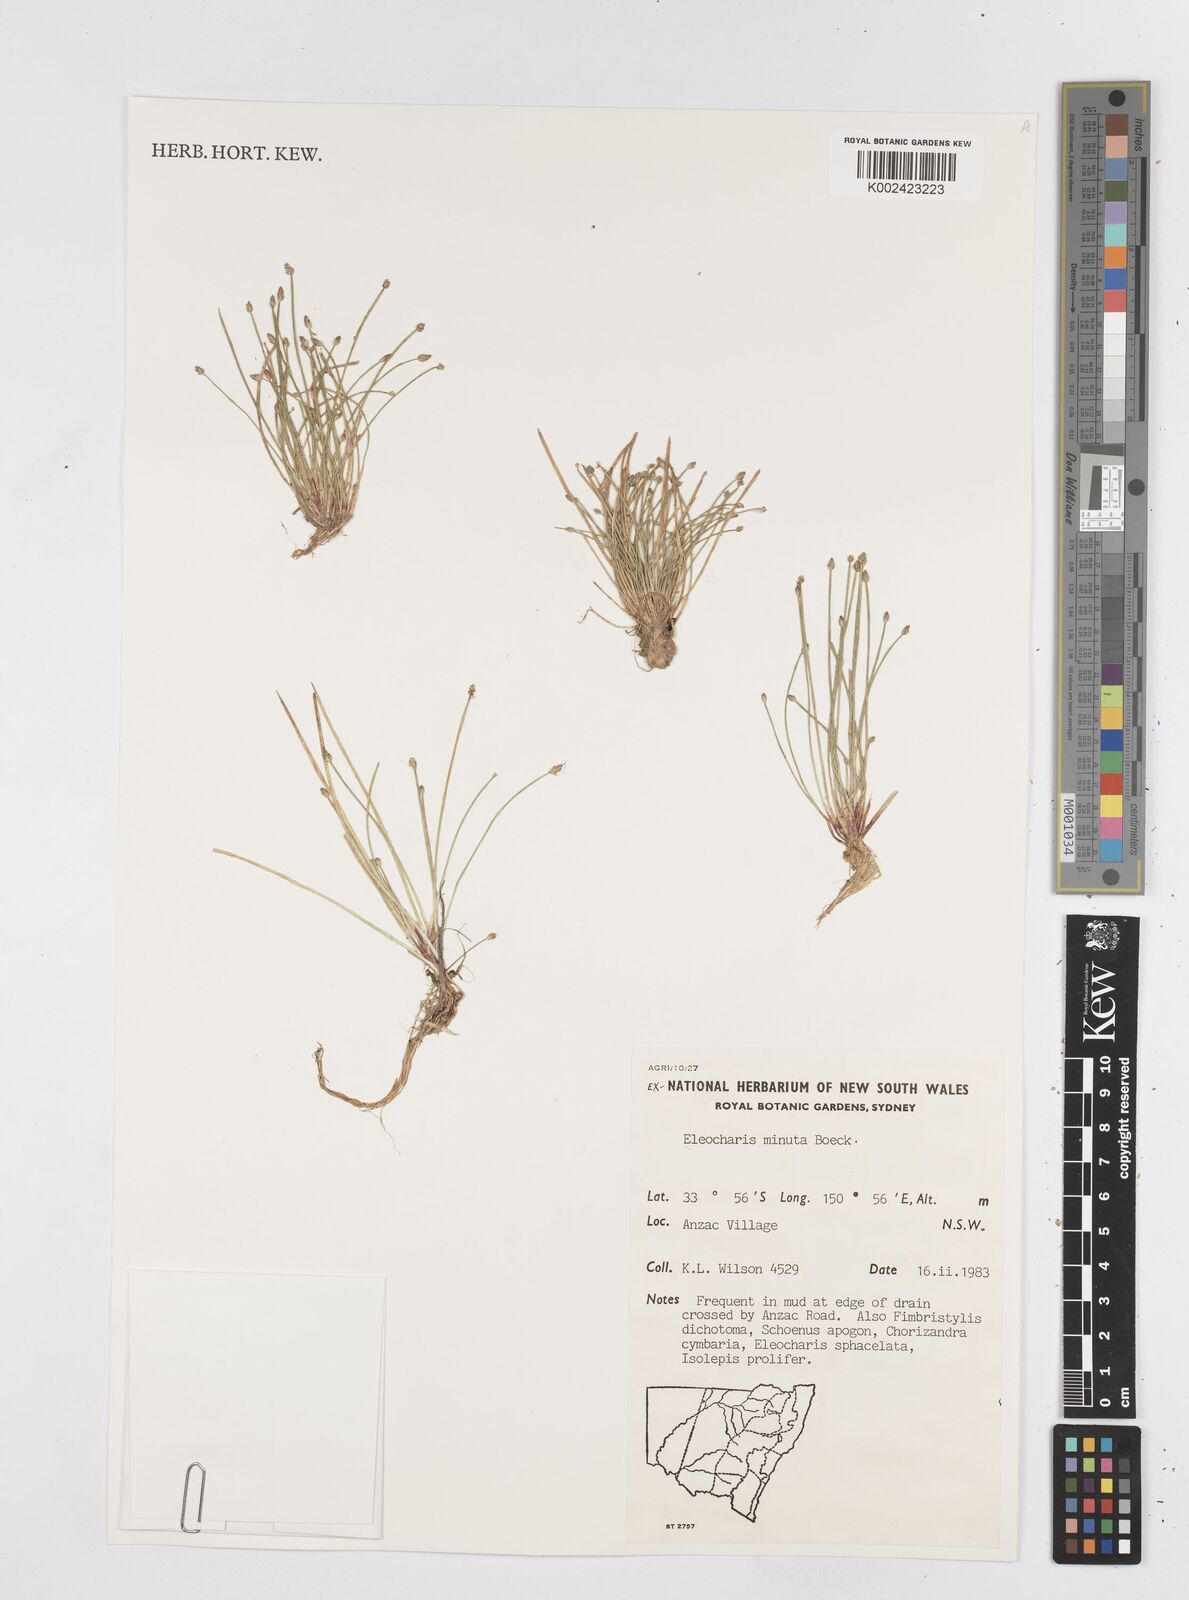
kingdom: Plantae
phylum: Tracheophyta
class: Liliopsida
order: Poales
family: Cyperaceae
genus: Eleocharis
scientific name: Eleocharis minuta
